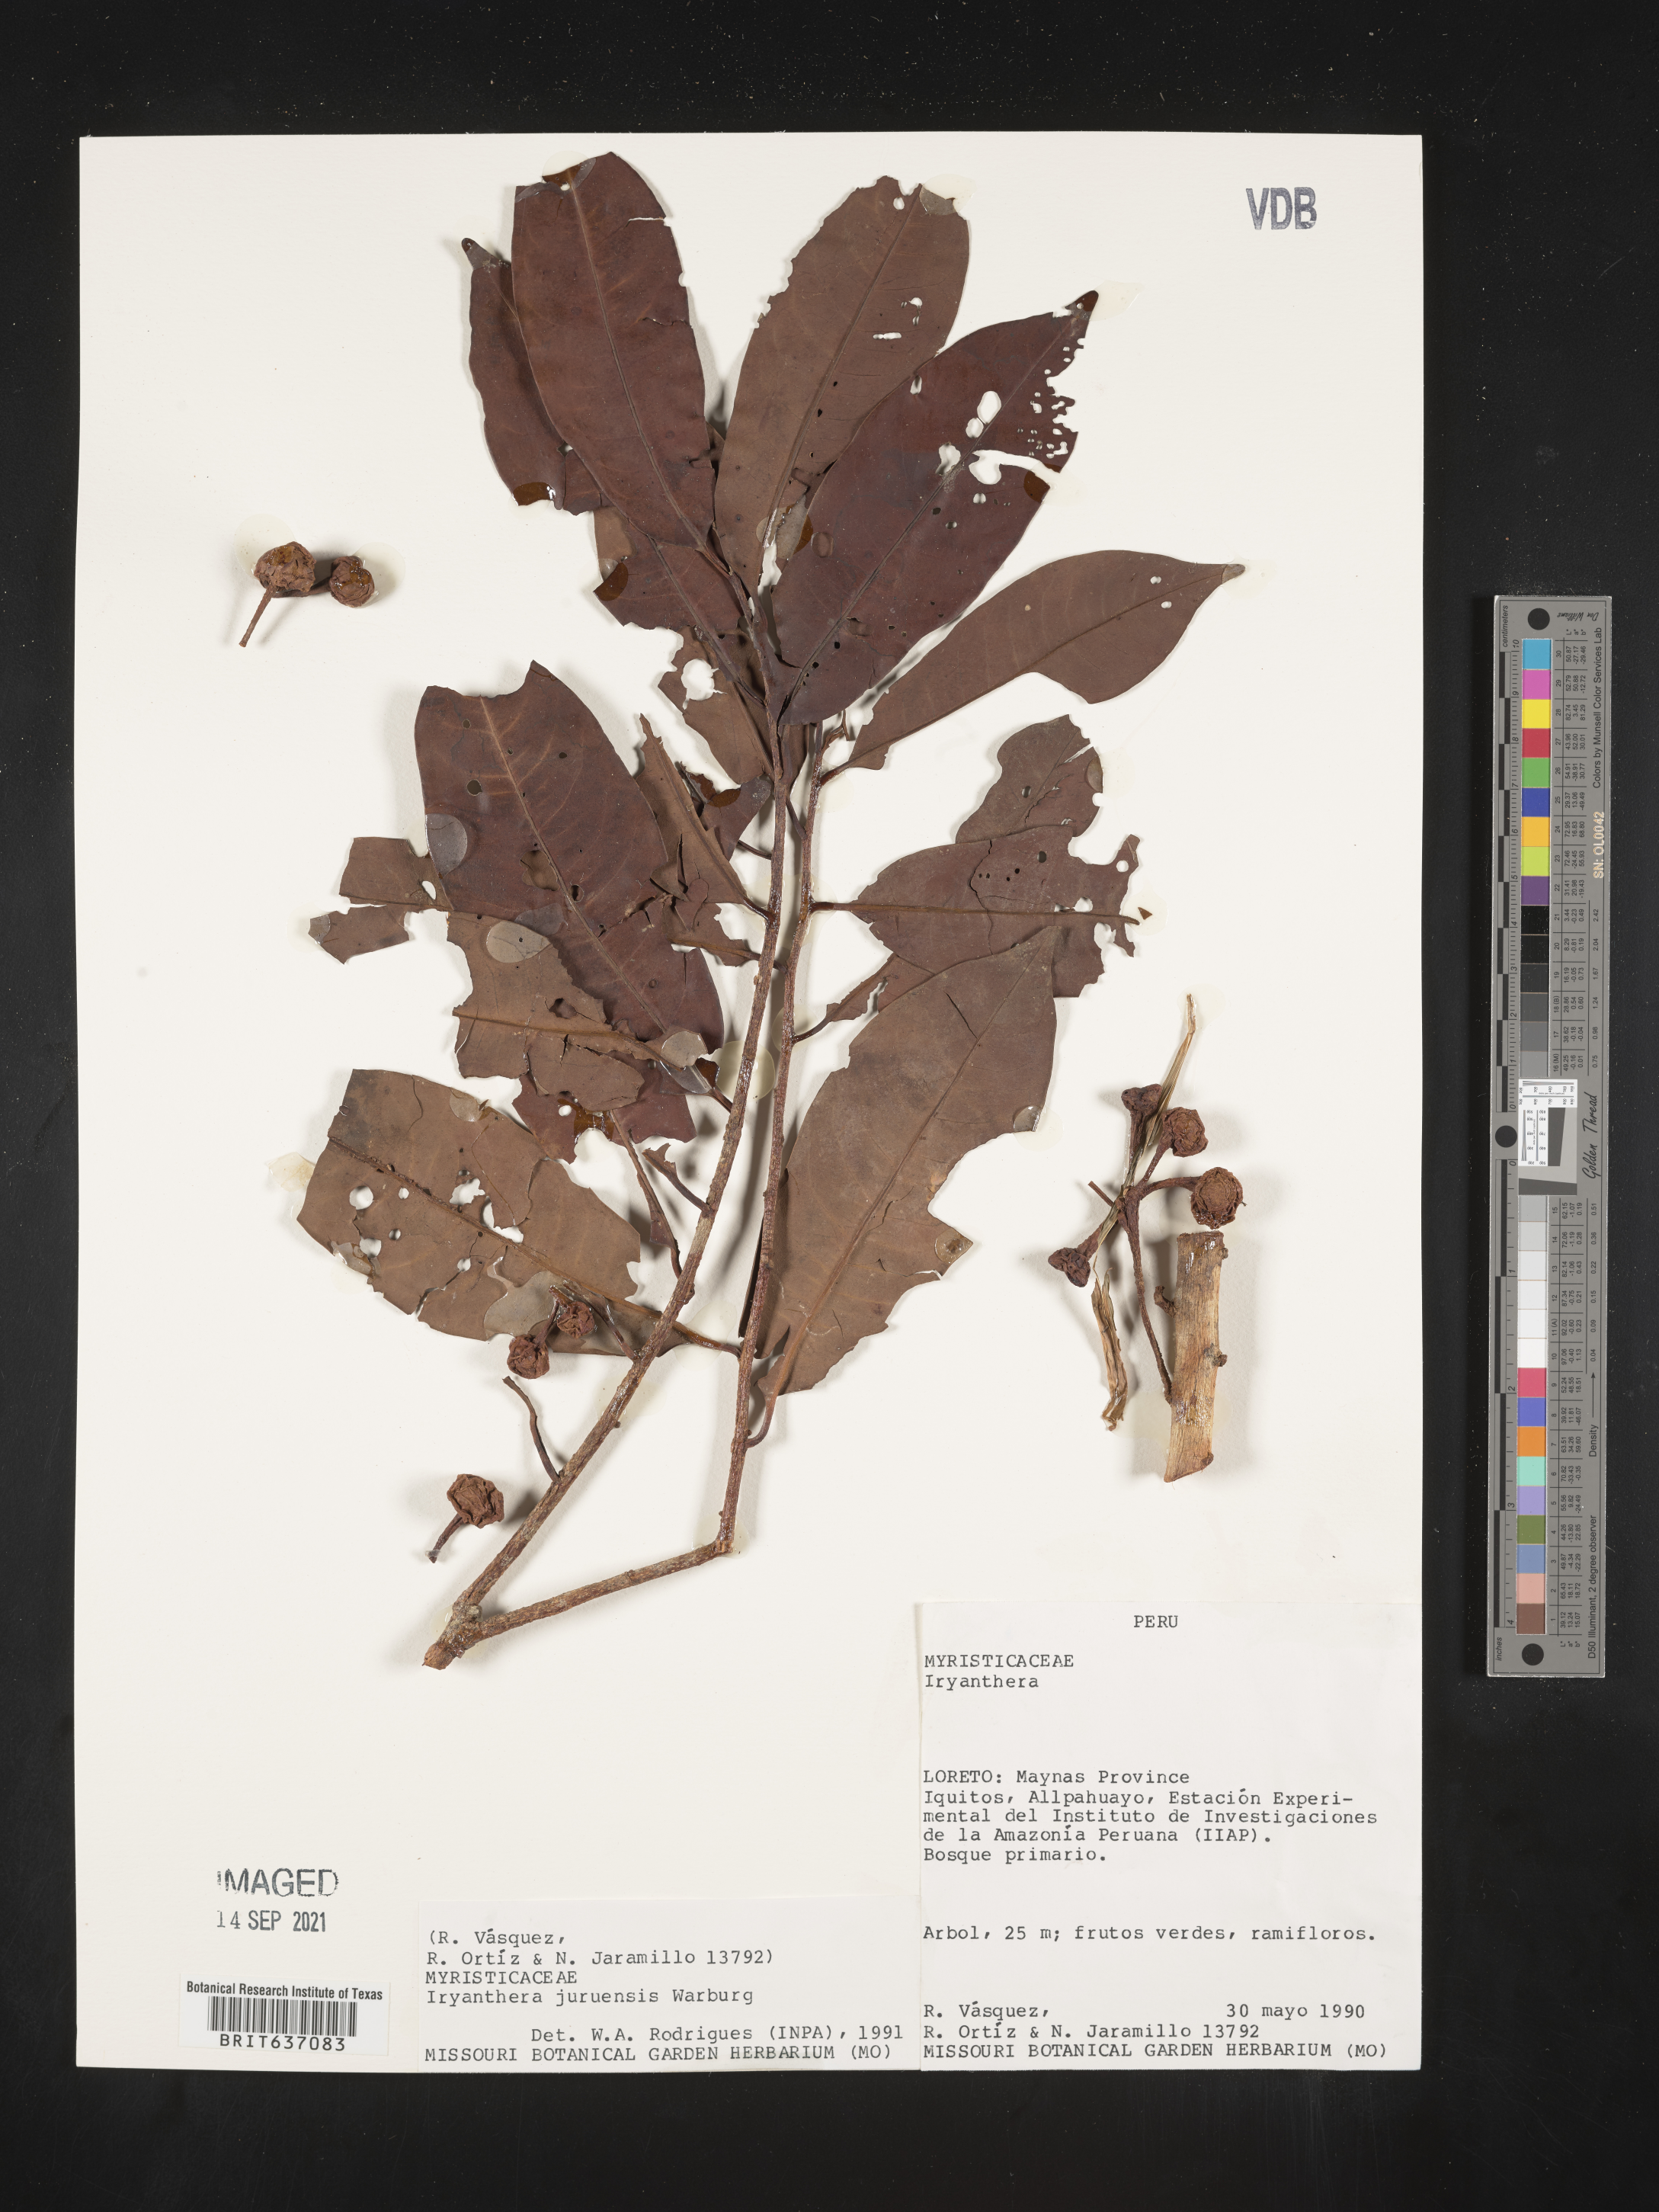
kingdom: Plantae
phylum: Tracheophyta
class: Magnoliopsida
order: Magnoliales
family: Myristicaceae
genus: Iryanthera
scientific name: Iryanthera
